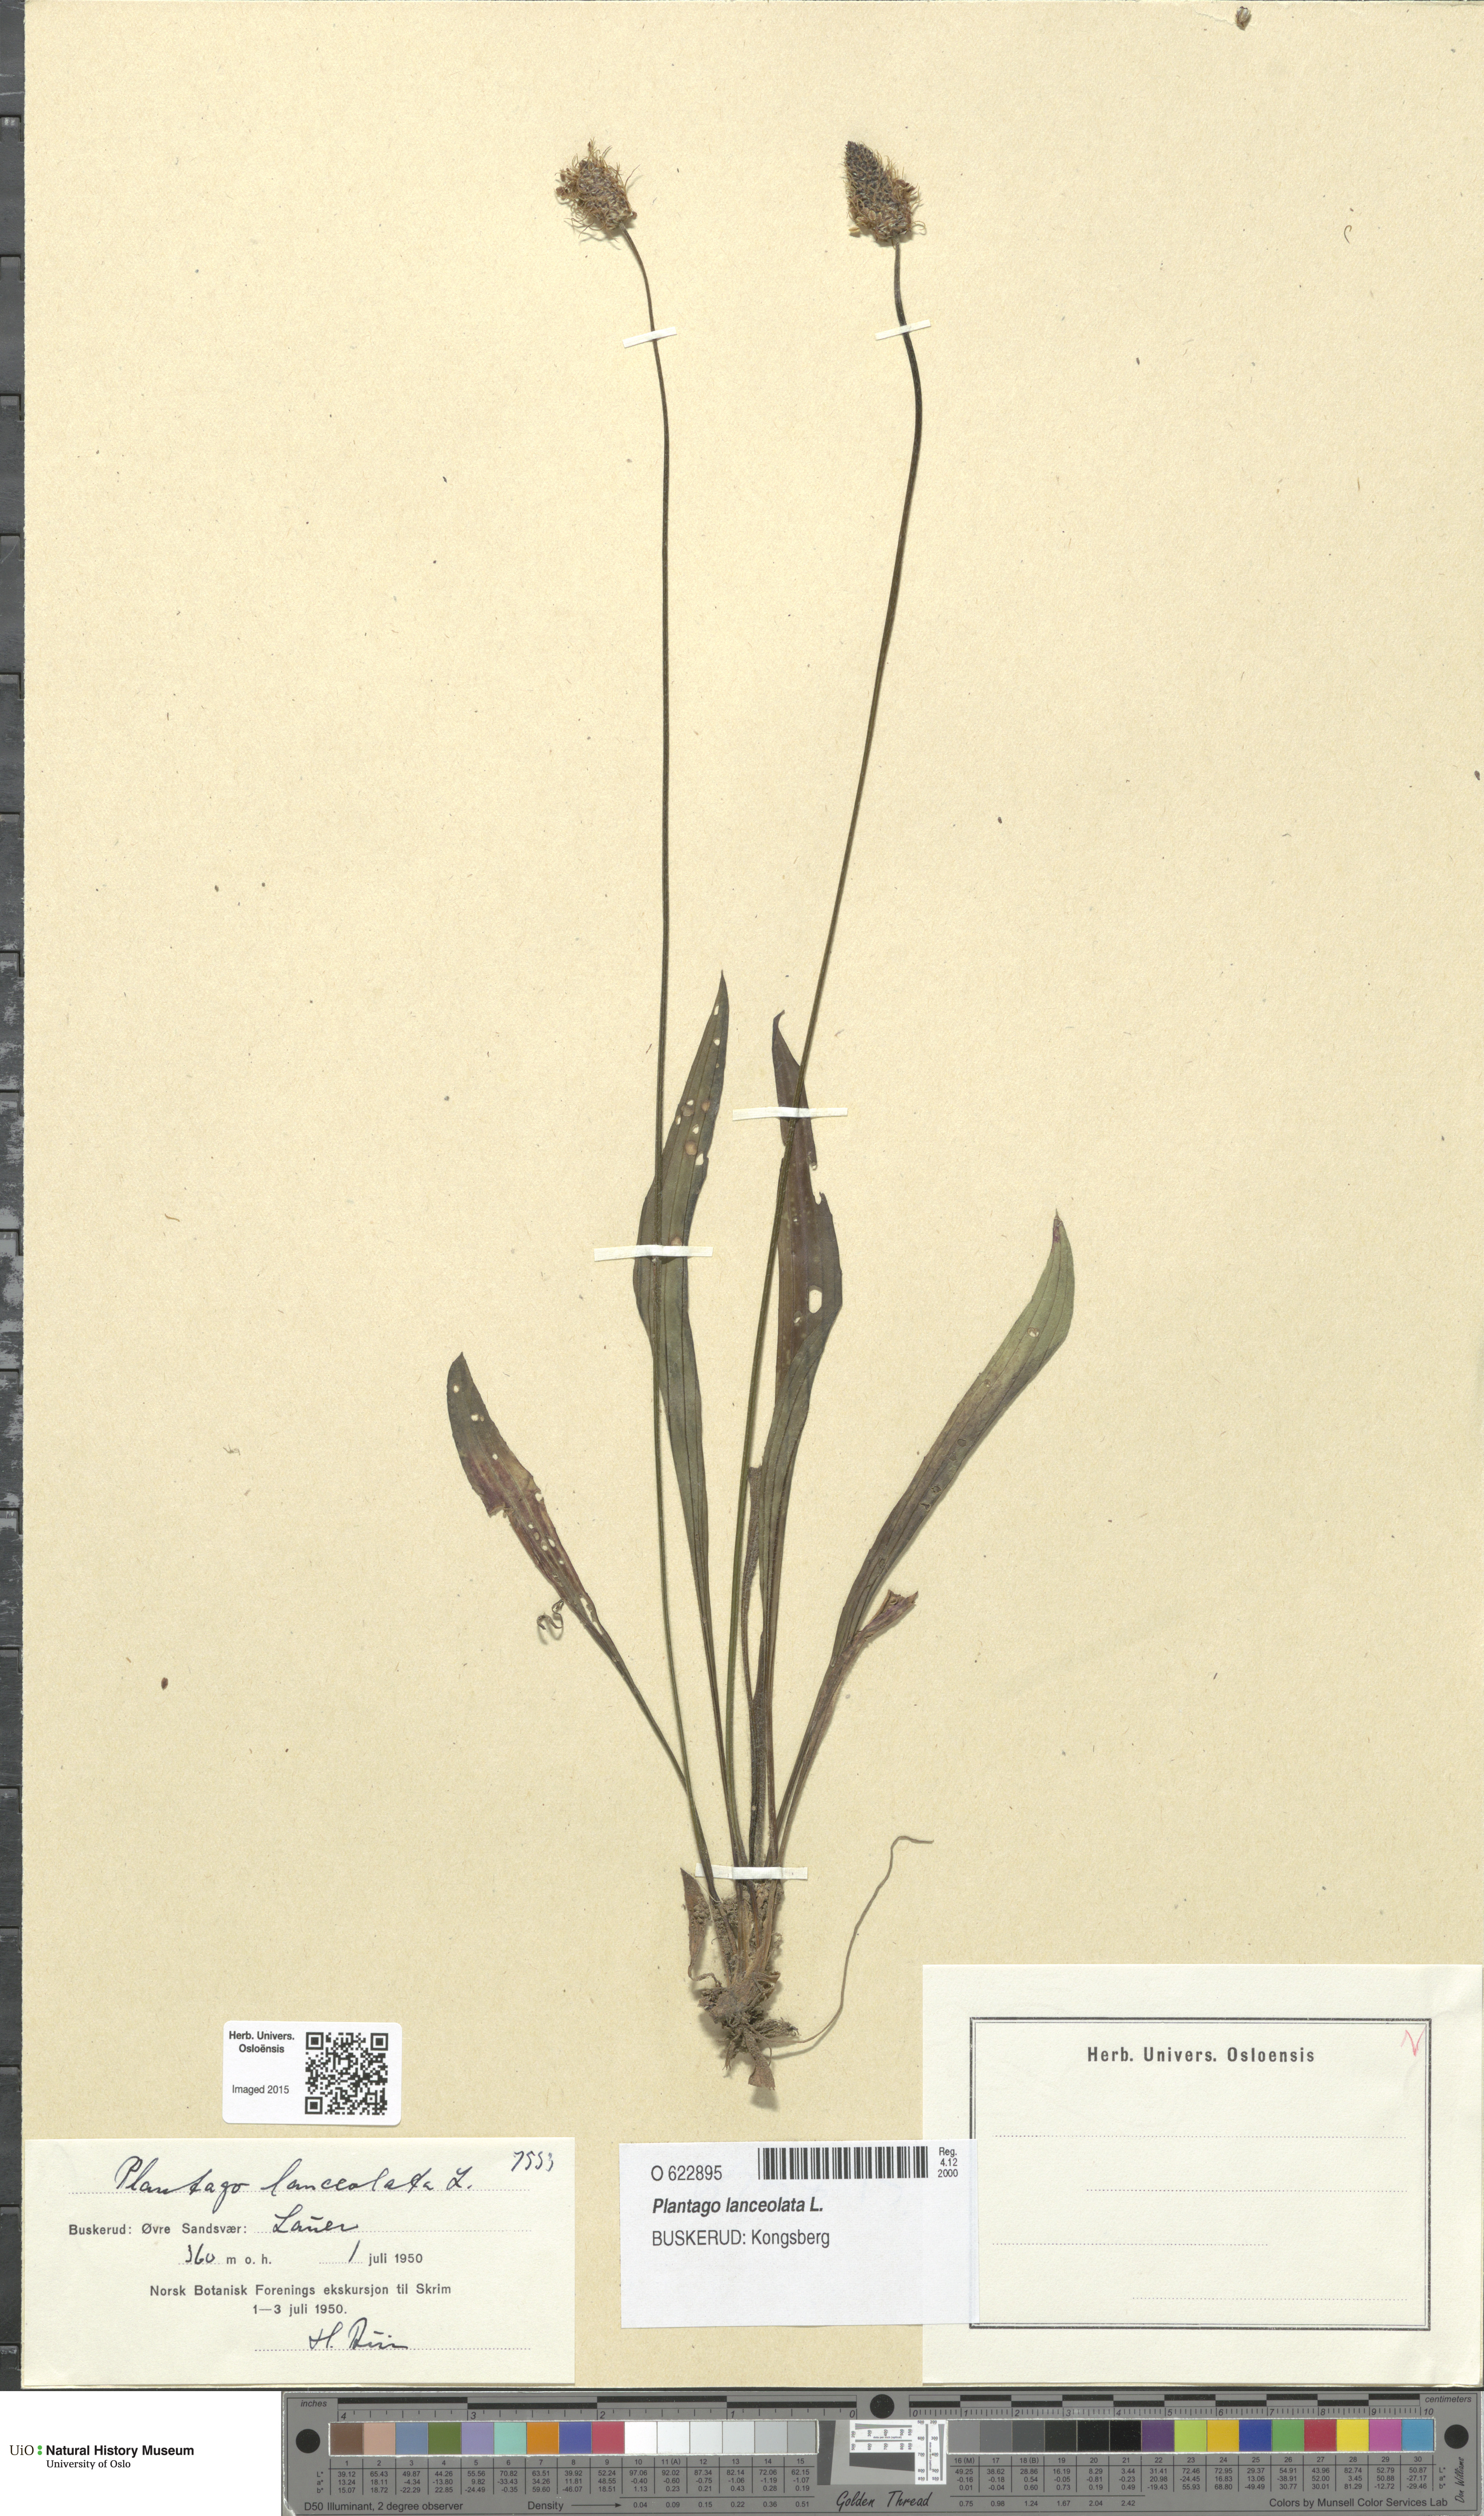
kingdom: Plantae
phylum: Tracheophyta
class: Magnoliopsida
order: Lamiales
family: Plantaginaceae
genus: Plantago
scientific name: Plantago lanceolata
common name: Ribwort plantain
